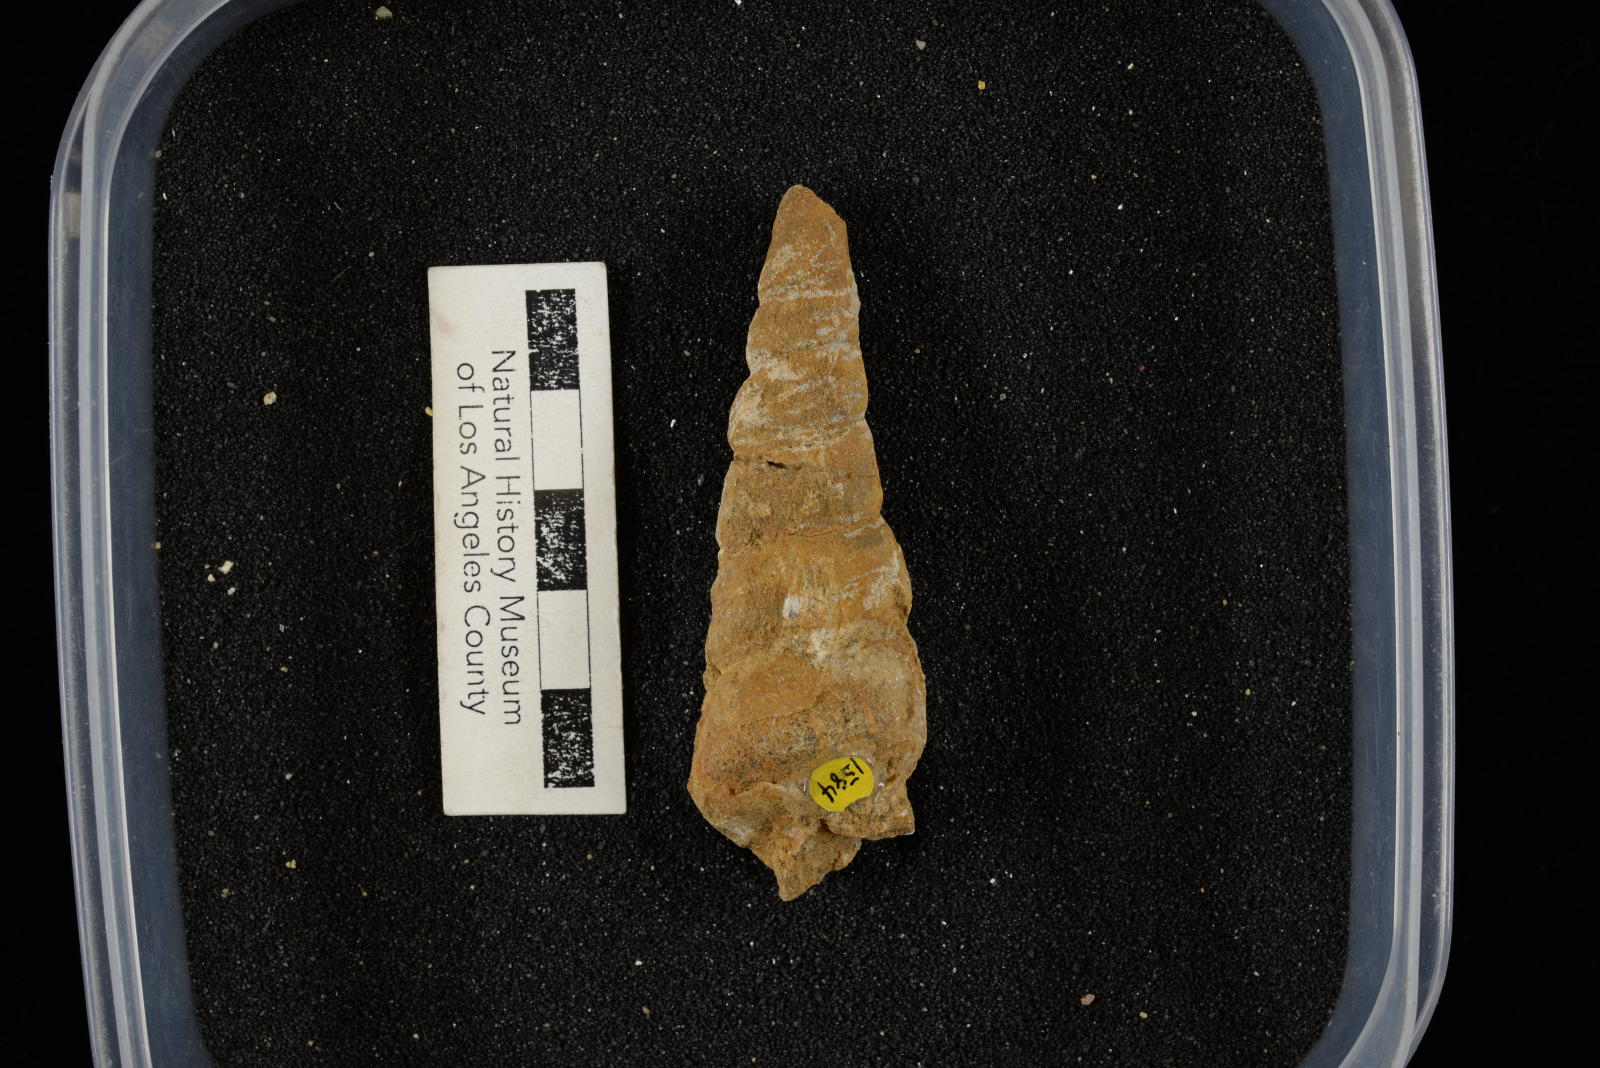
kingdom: Animalia
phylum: Mollusca
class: Gastropoda
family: Turritellidae
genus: Turritella
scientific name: Turritella chaneyi
